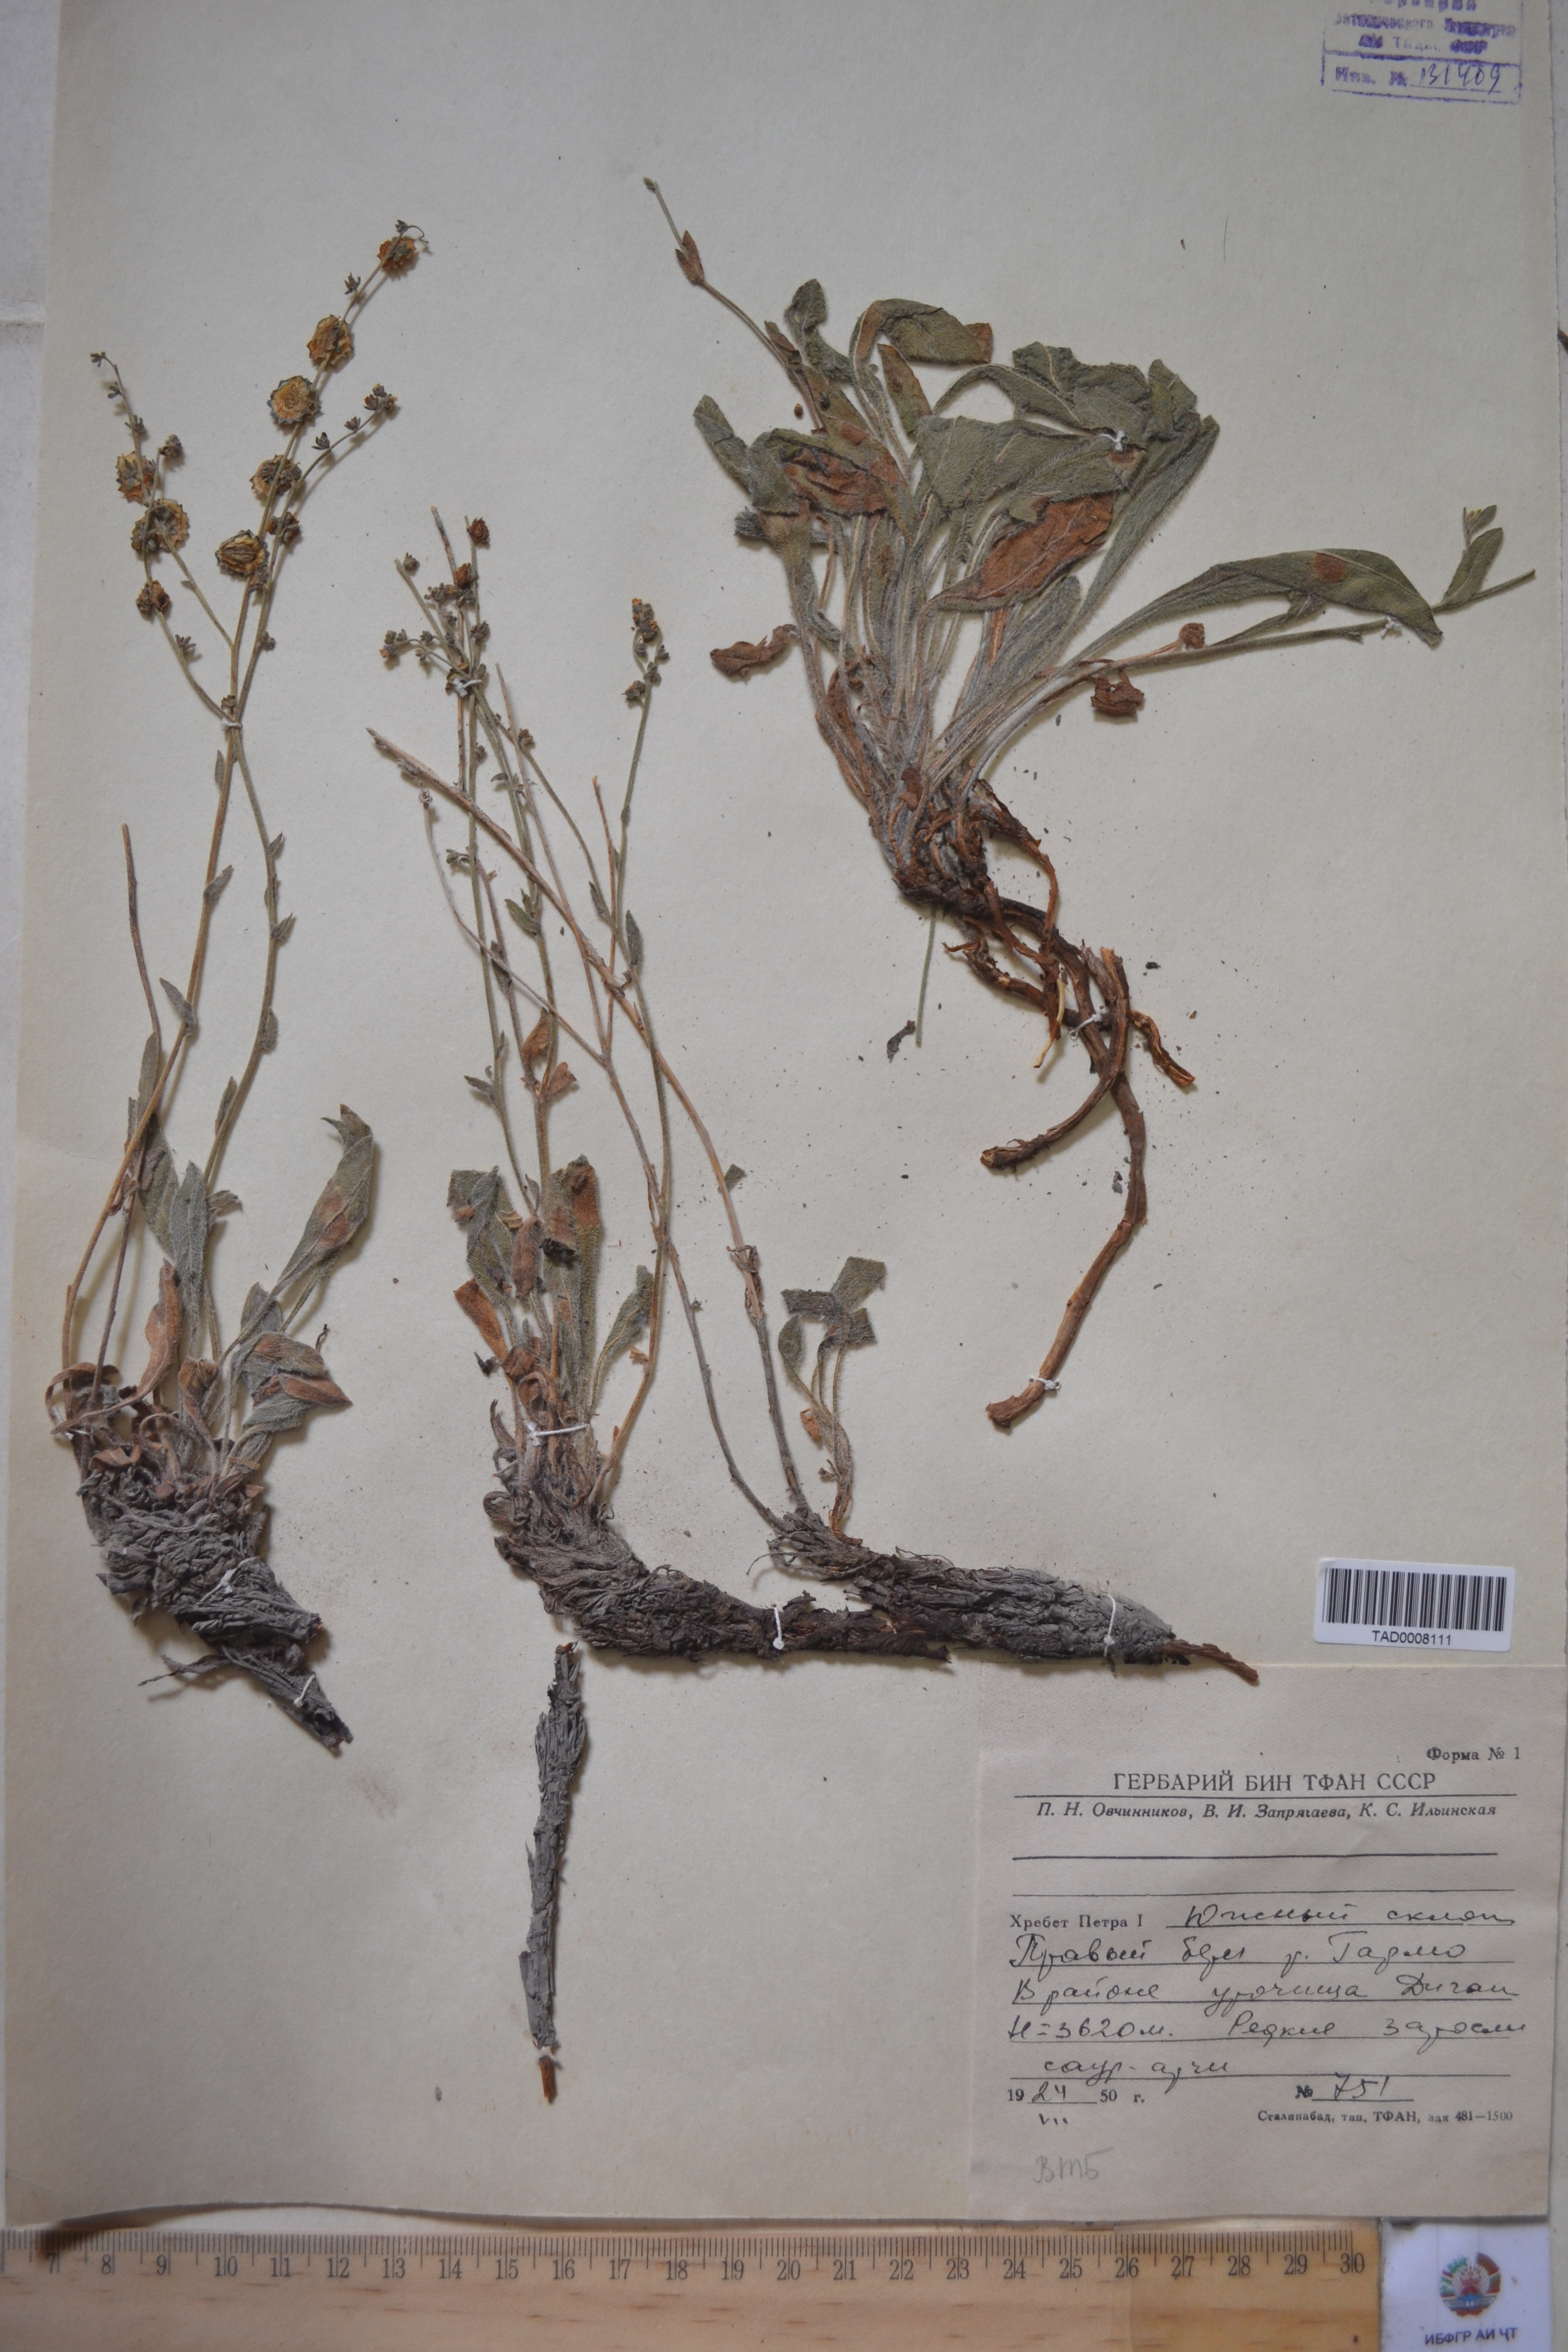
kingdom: Plantae
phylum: Tracheophyta
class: Magnoliopsida
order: Boraginales
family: Boraginaceae
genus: Paracaryum
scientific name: Paracaryum himalayense
